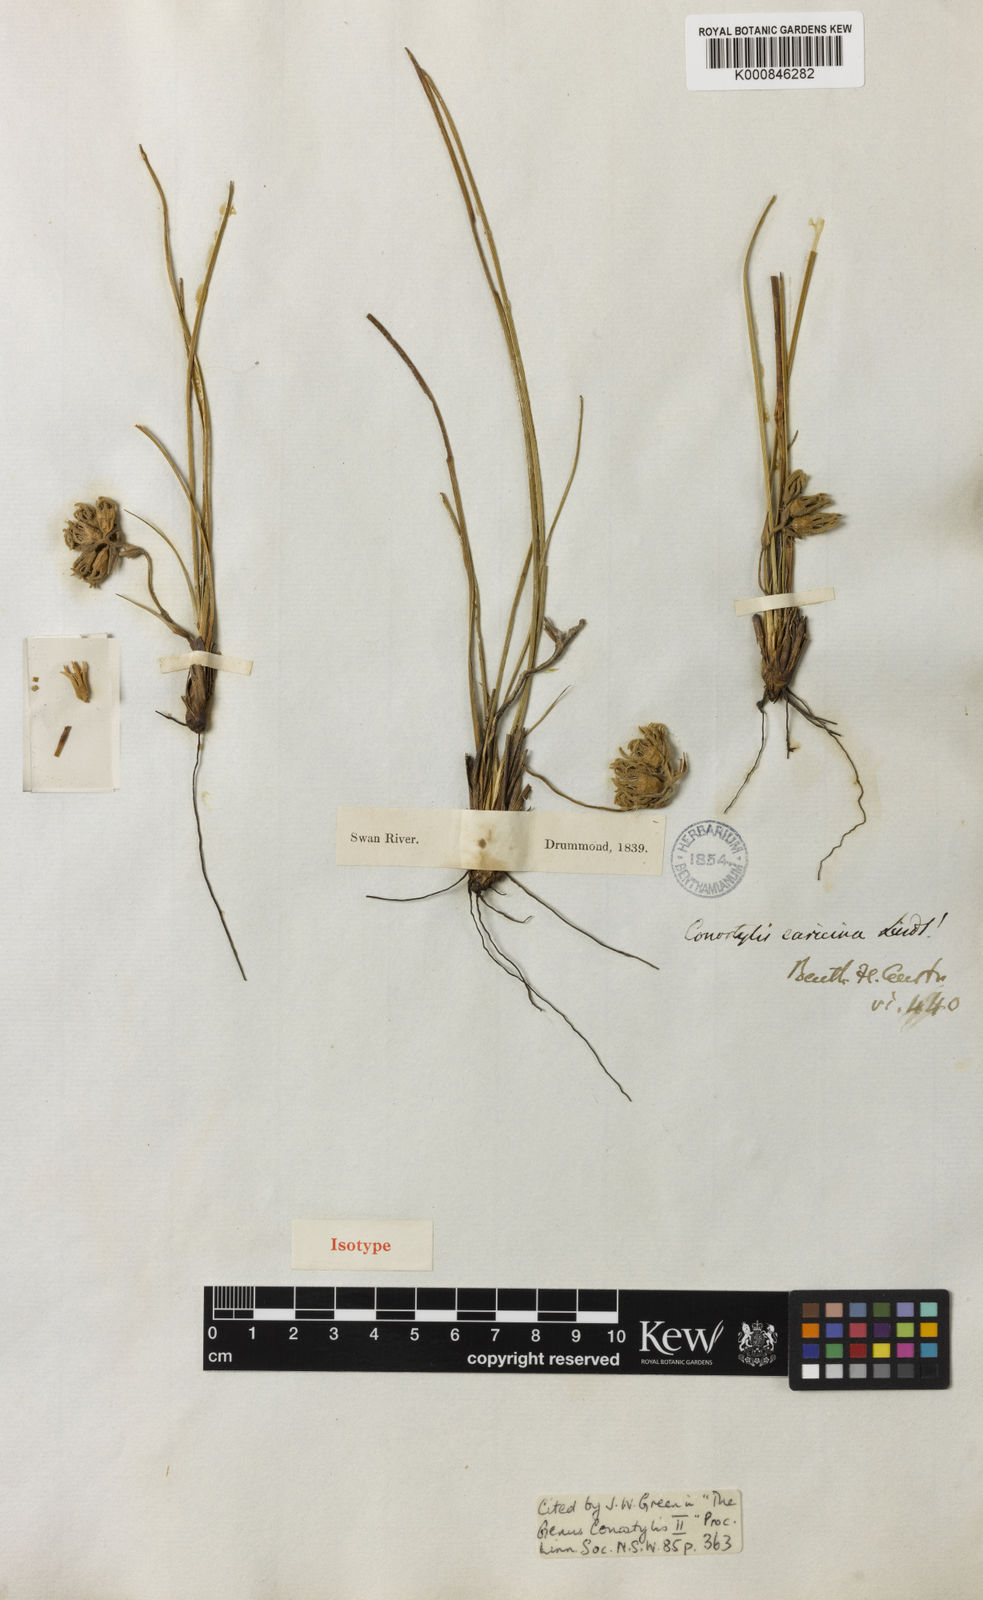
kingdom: Plantae
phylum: Tracheophyta
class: Liliopsida
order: Commelinales
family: Haemodoraceae
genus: Conostylis
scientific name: Conostylis caricina
